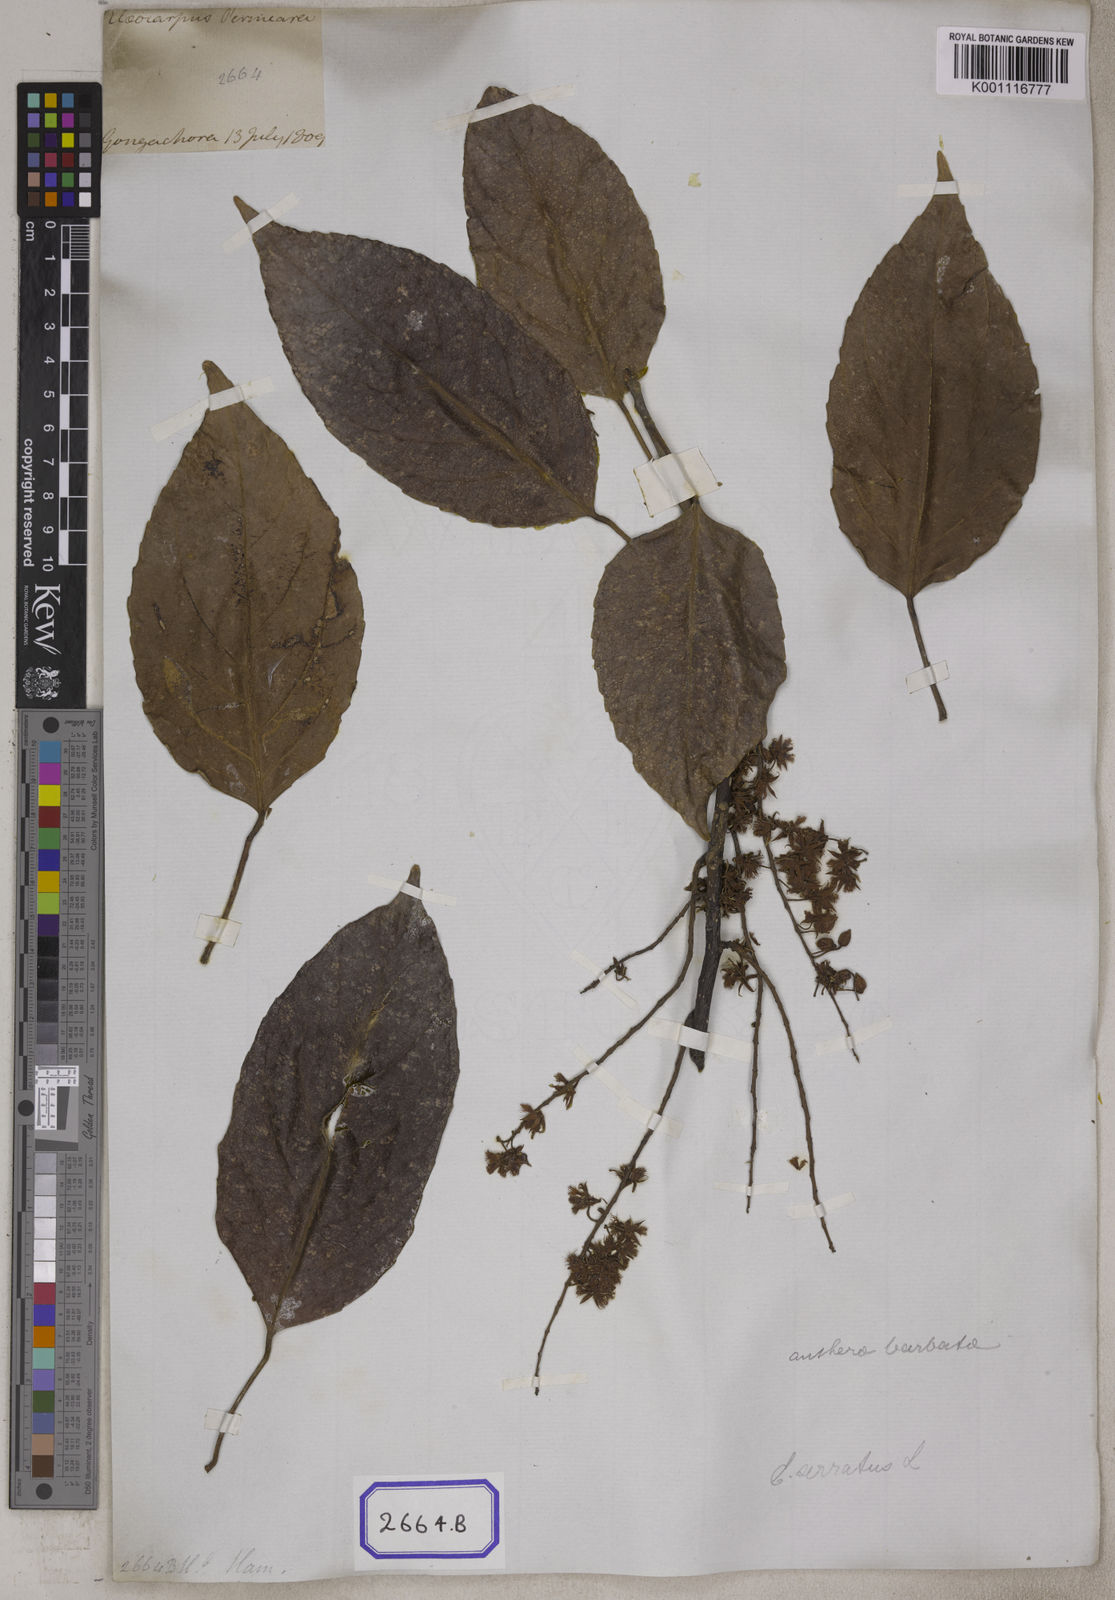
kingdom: Plantae
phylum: Tracheophyta
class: Magnoliopsida
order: Oxalidales
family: Elaeocarpaceae
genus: Elaeocarpus
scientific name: Elaeocarpus
